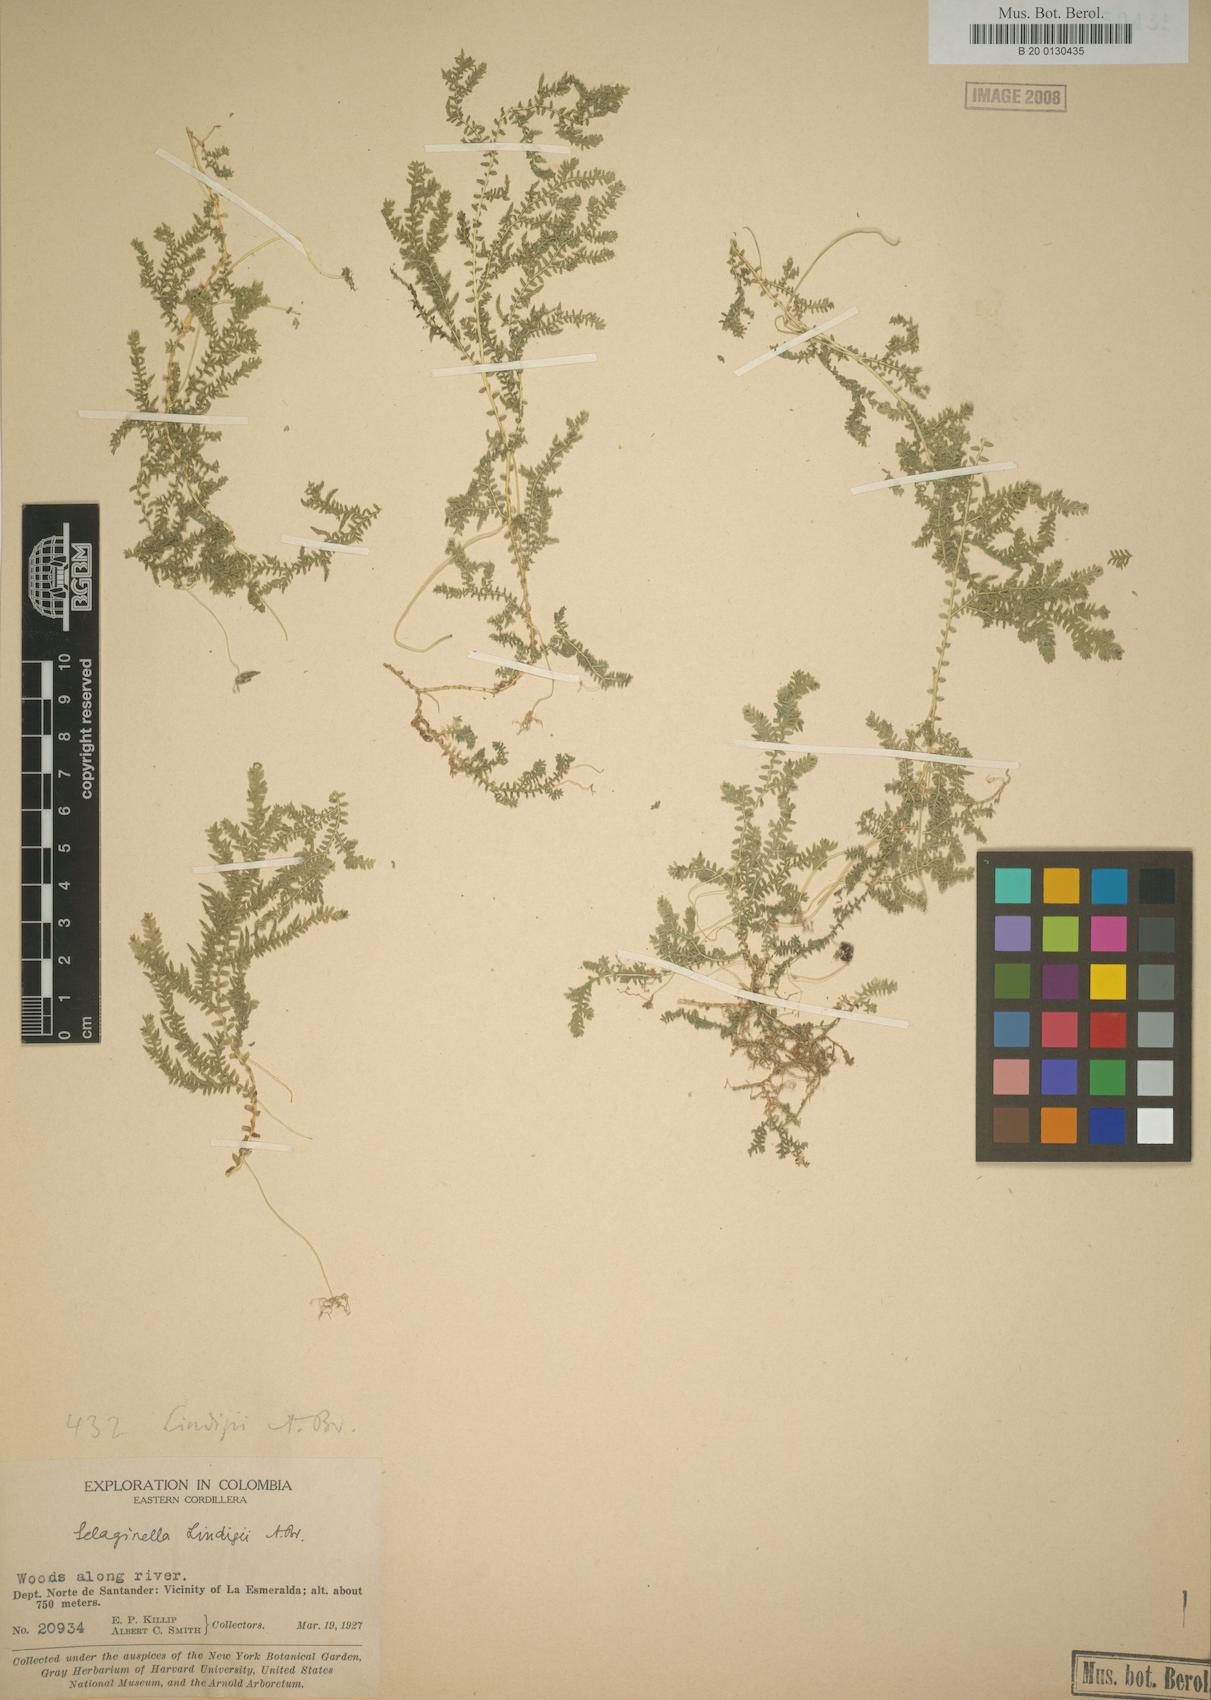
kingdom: Plantae
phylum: Tracheophyta
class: Lycopodiopsida
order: Selaginellales
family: Selaginellaceae
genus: Selaginella
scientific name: Selaginella lingulata
